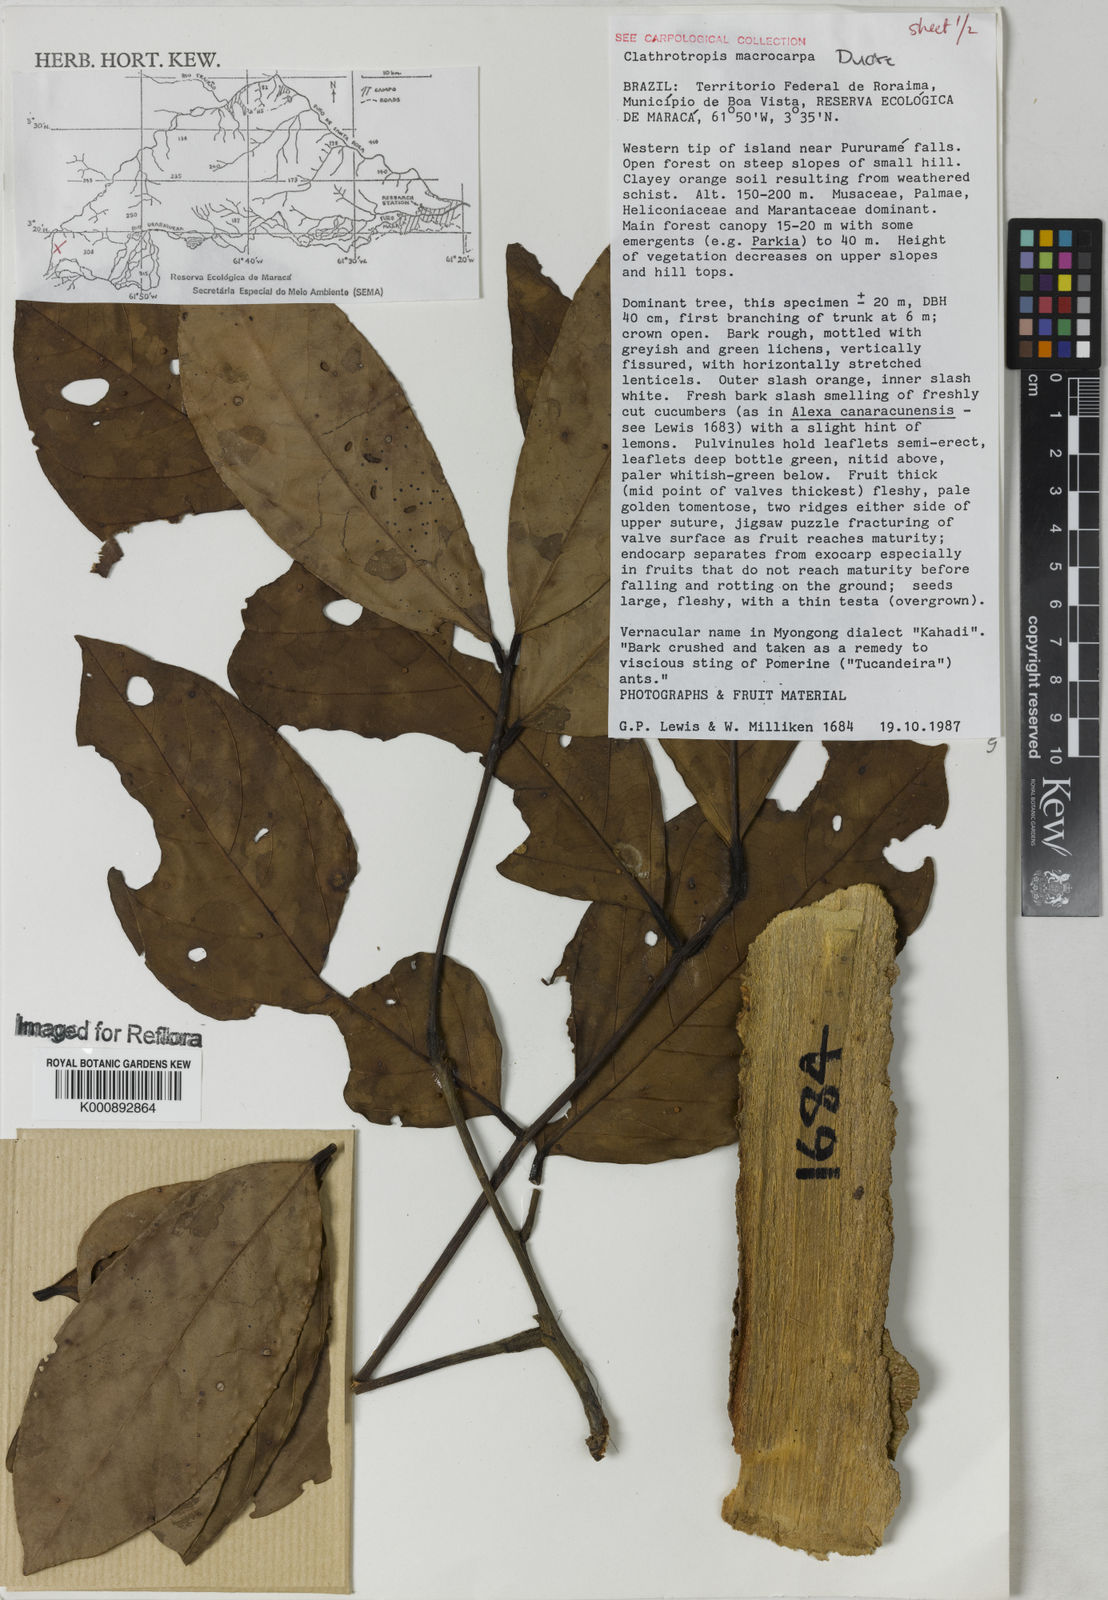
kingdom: Plantae
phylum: Tracheophyta
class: Magnoliopsida
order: Fabales
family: Fabaceae
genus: Clathrotropis
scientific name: Clathrotropis macrocarpa
